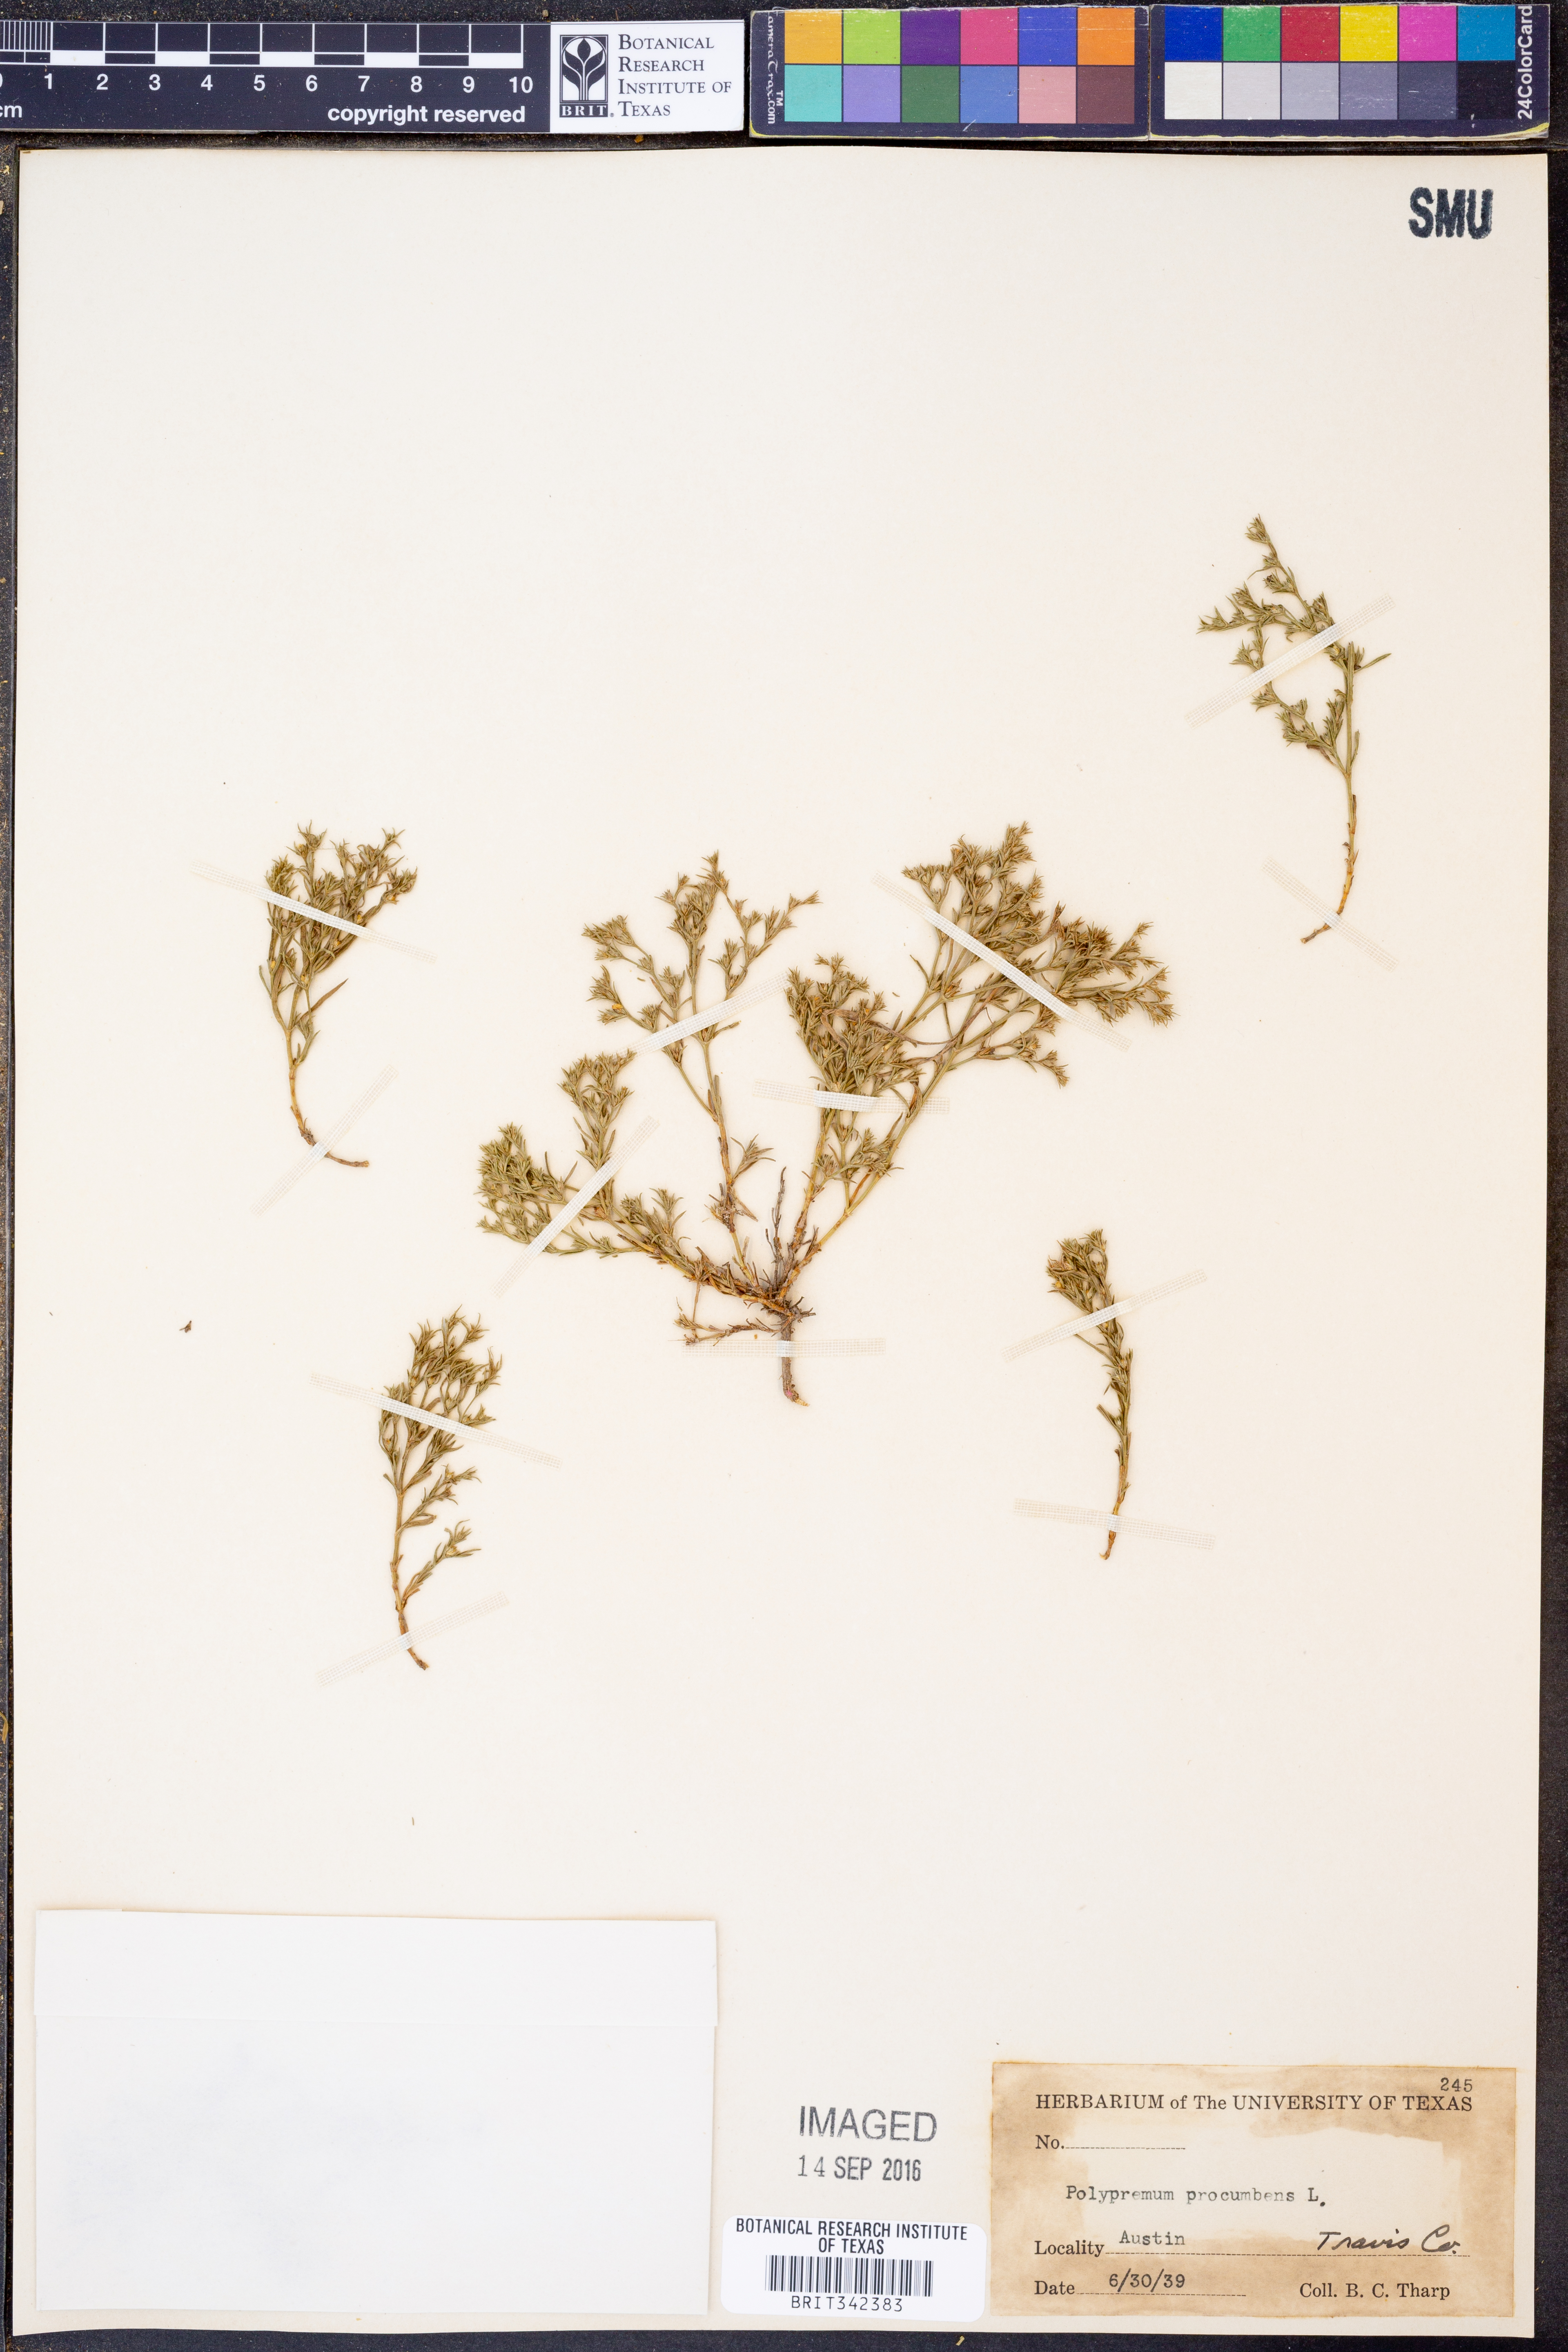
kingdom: Plantae
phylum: Tracheophyta
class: Magnoliopsida
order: Lamiales
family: Tetrachondraceae
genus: Polypremum
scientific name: Polypremum procumbens
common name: Juniper-leaf
